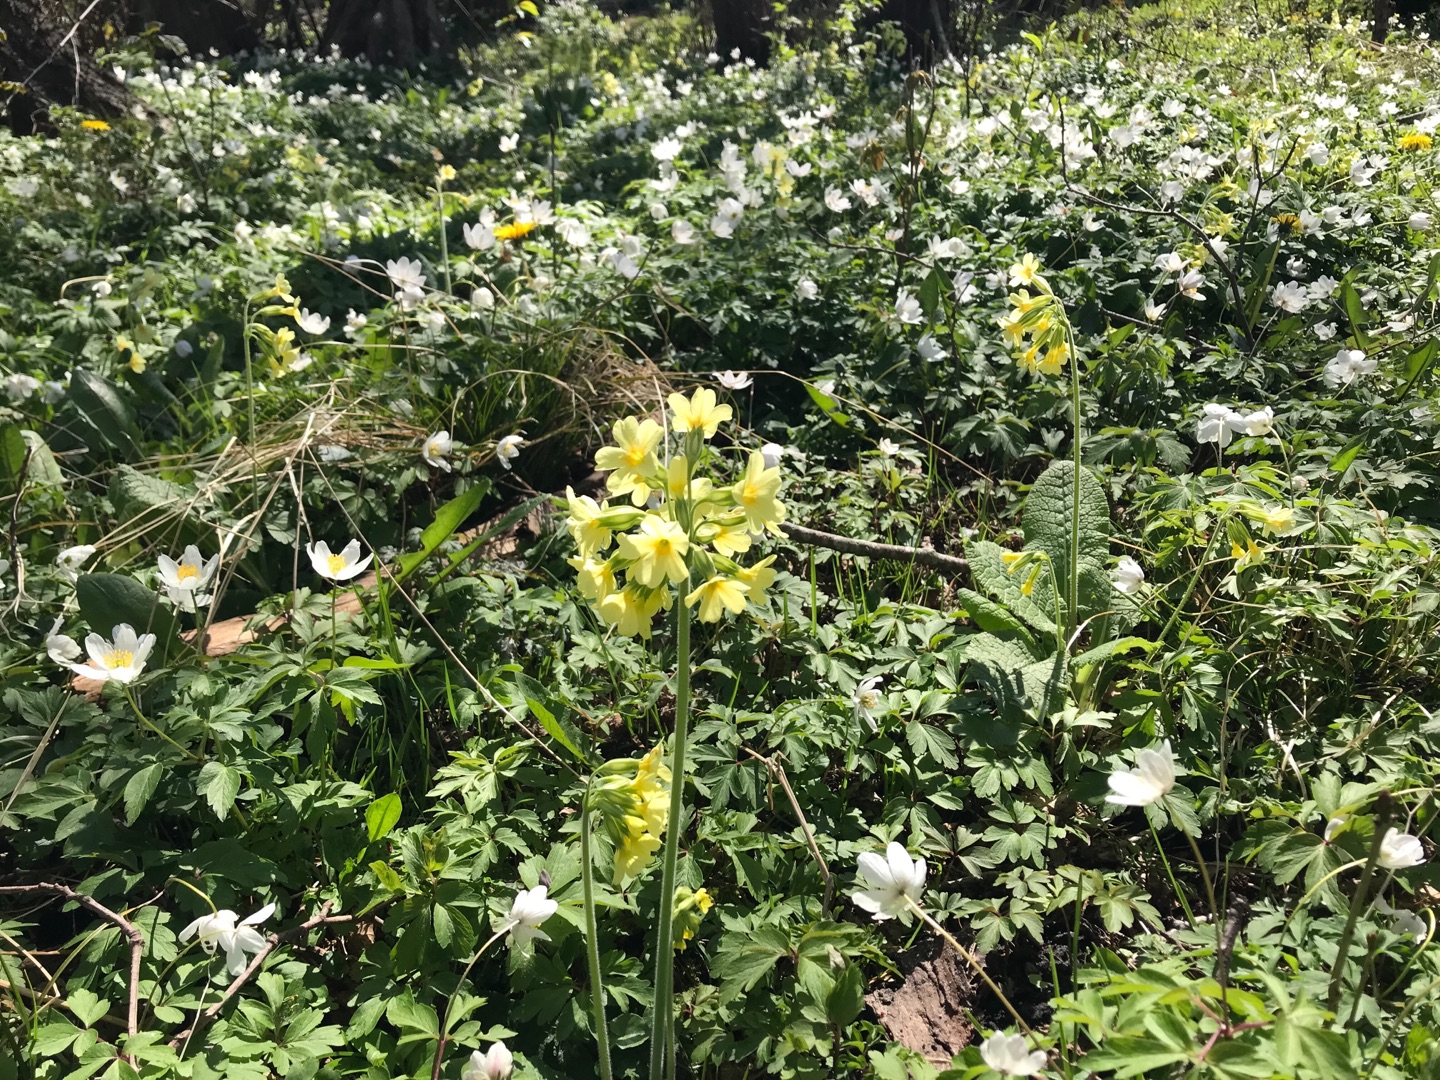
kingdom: Plantae
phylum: Tracheophyta
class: Magnoliopsida
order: Ericales
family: Primulaceae
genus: Primula
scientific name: Primula elatior
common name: Fladkravet kodriver
